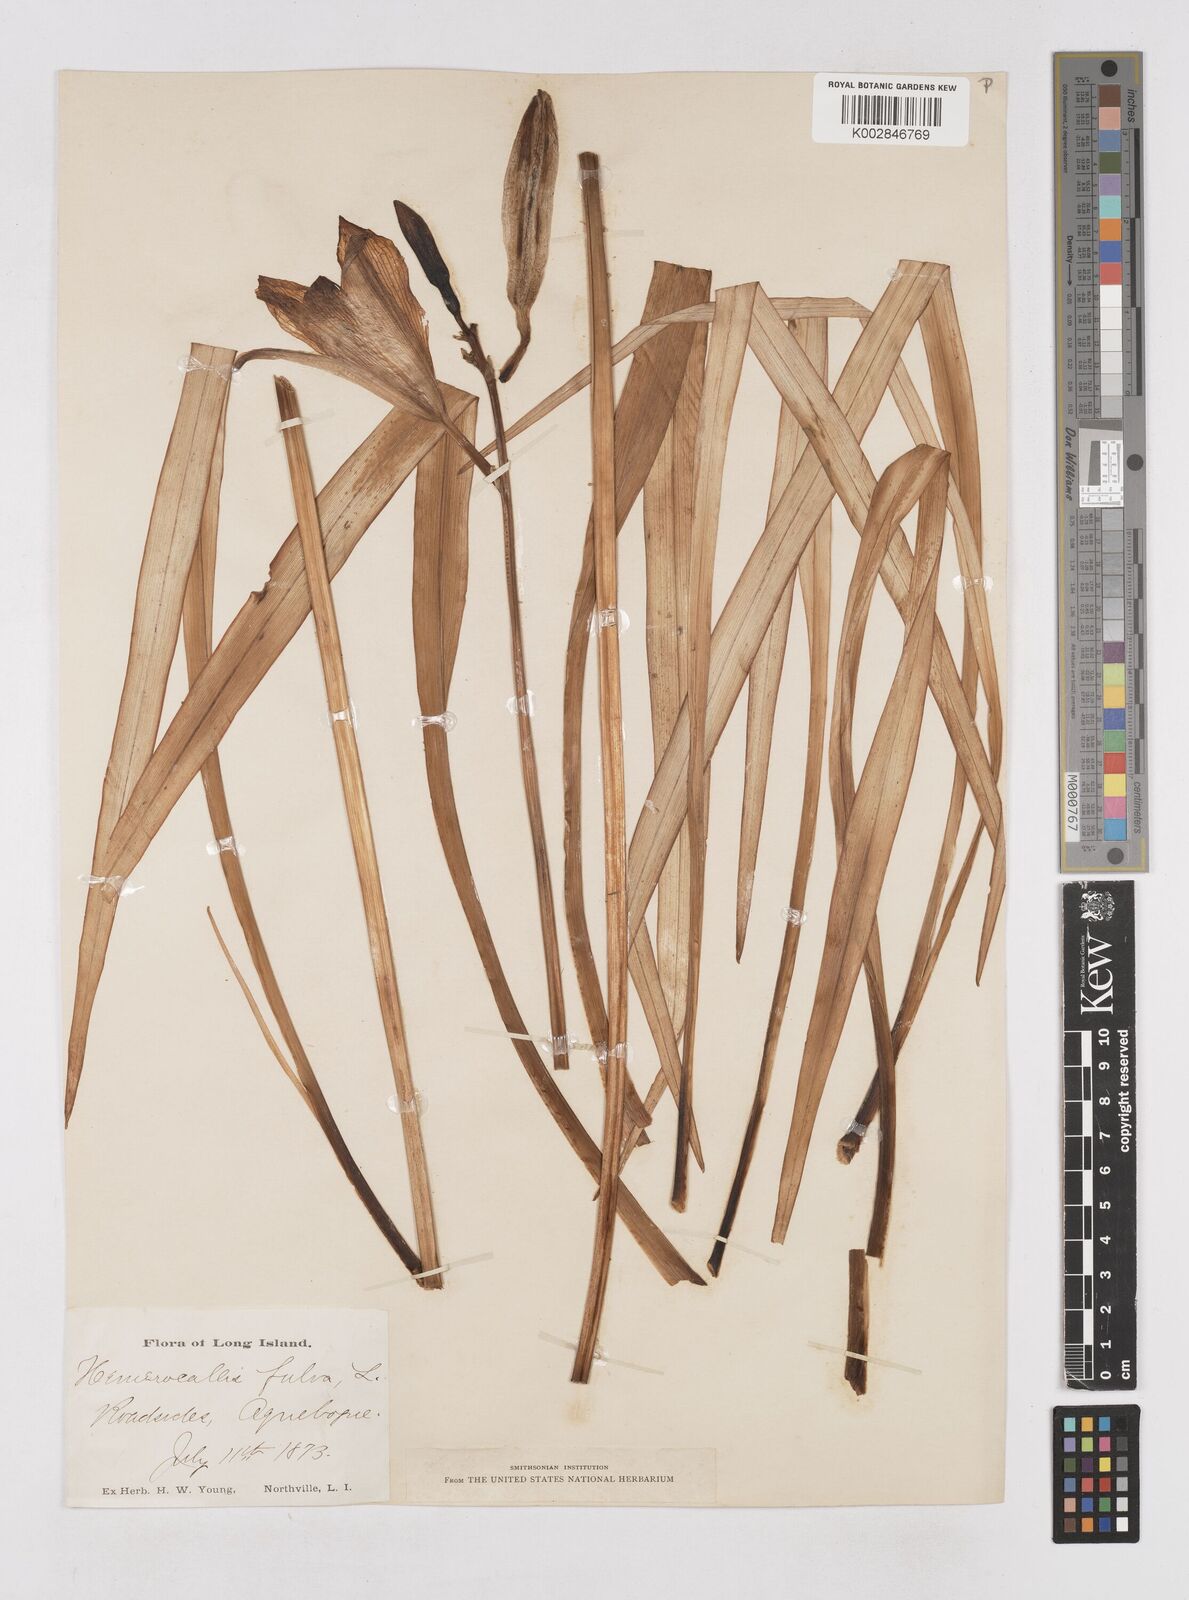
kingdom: Plantae
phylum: Tracheophyta
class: Liliopsida
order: Asparagales
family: Asphodelaceae
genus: Hemerocallis
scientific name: Hemerocallis fulva
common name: Orange day-lily
